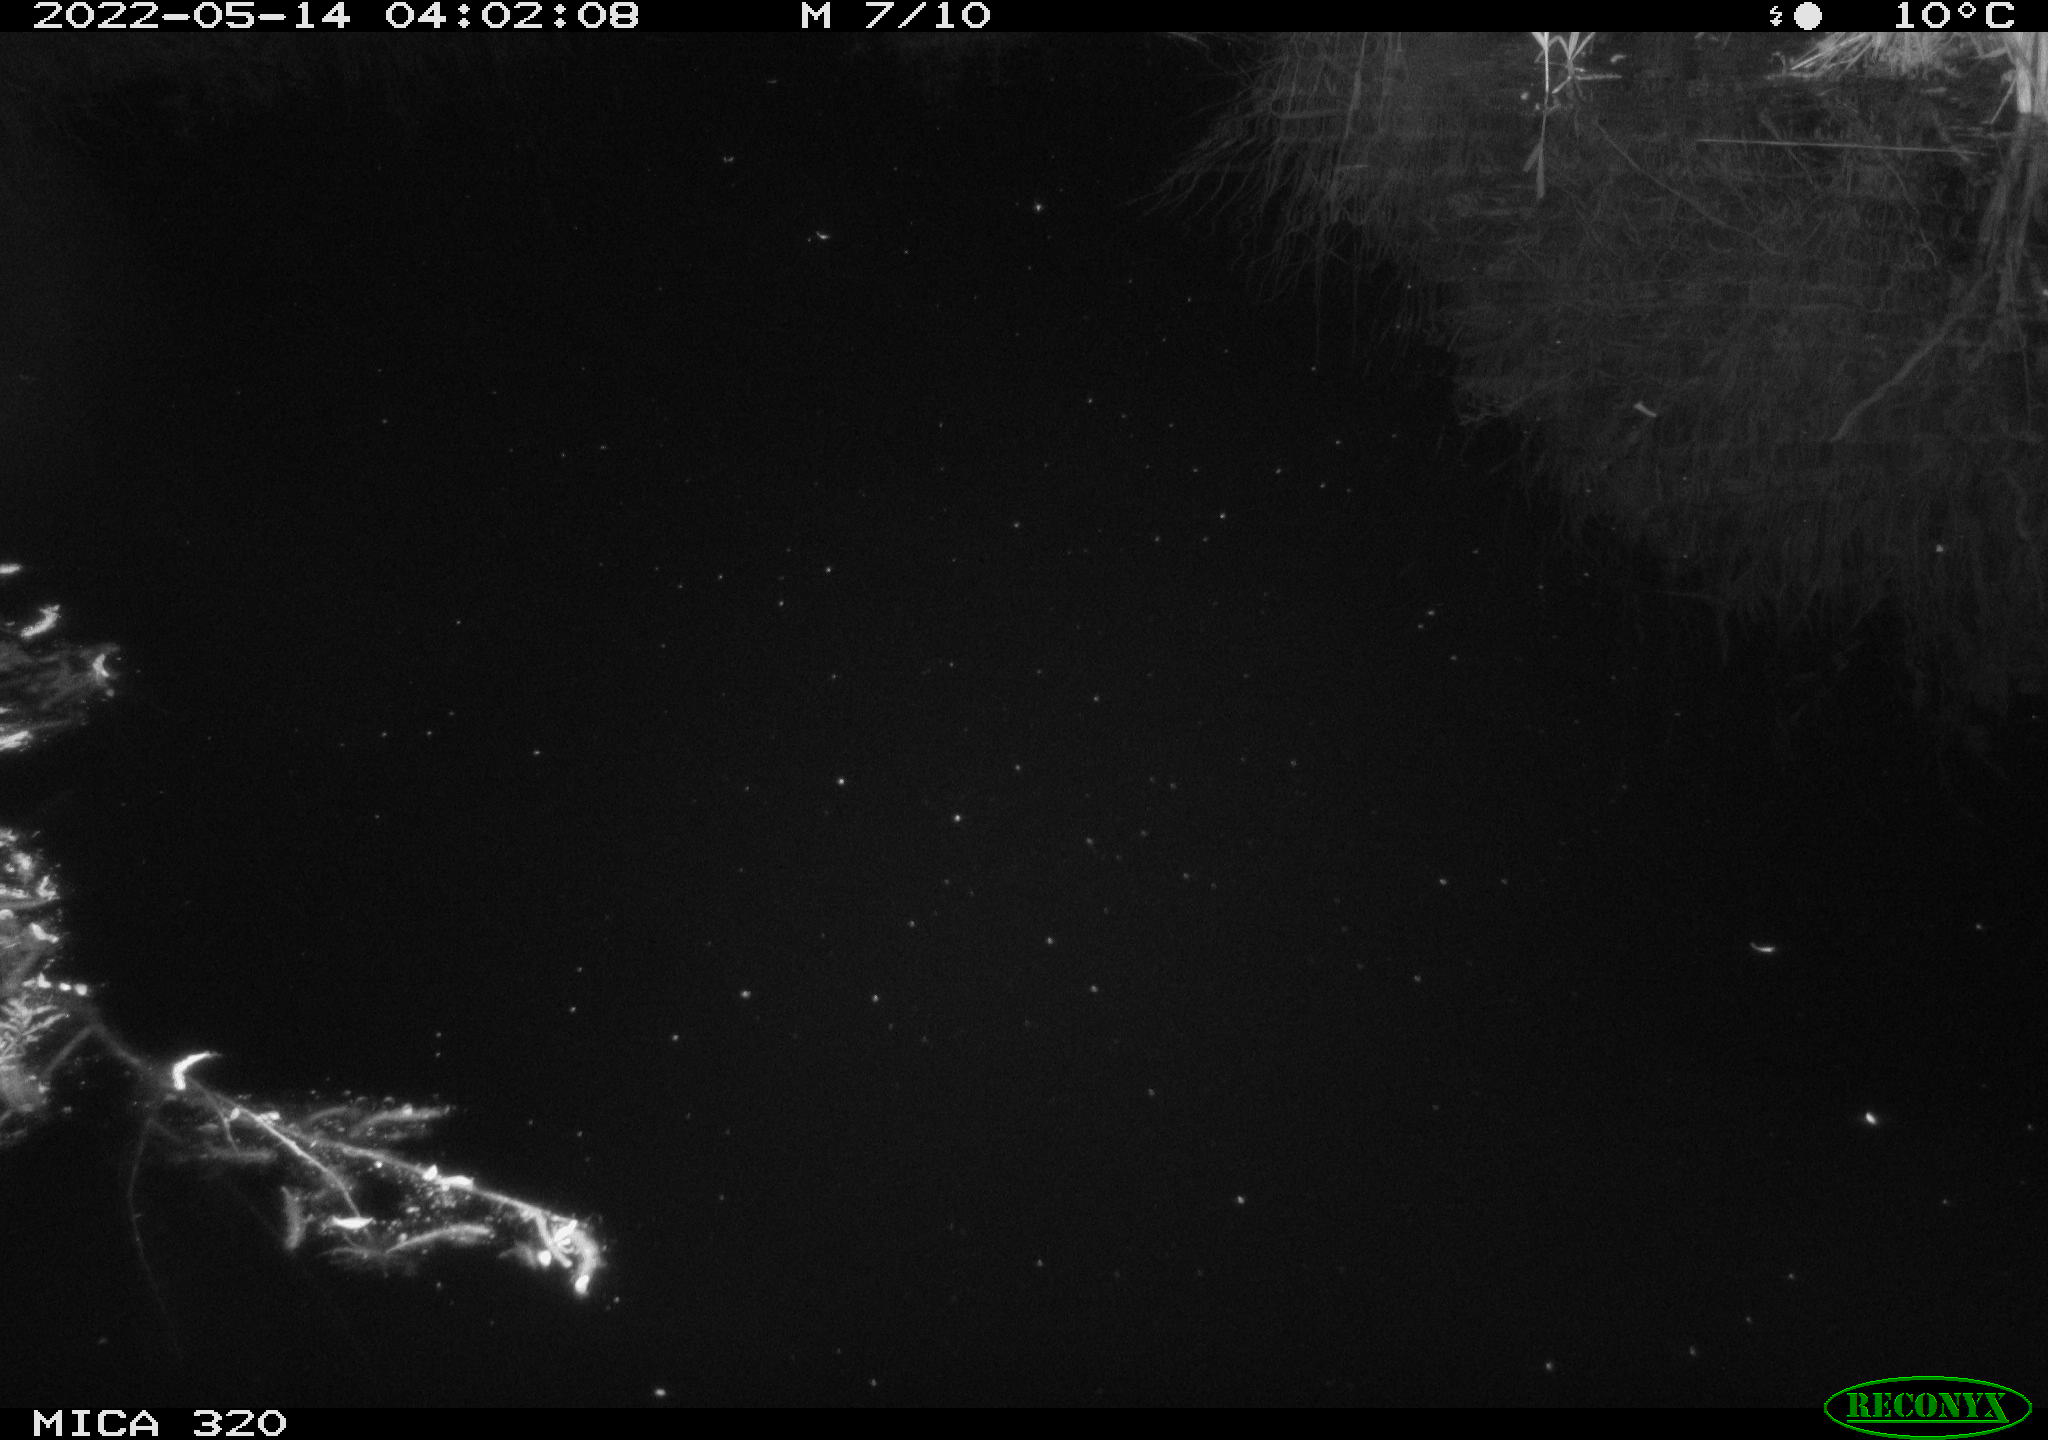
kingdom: Animalia
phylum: Chordata
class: Aves
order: Anseriformes
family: Anatidae
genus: Anas
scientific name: Anas platyrhynchos
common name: Mallard
